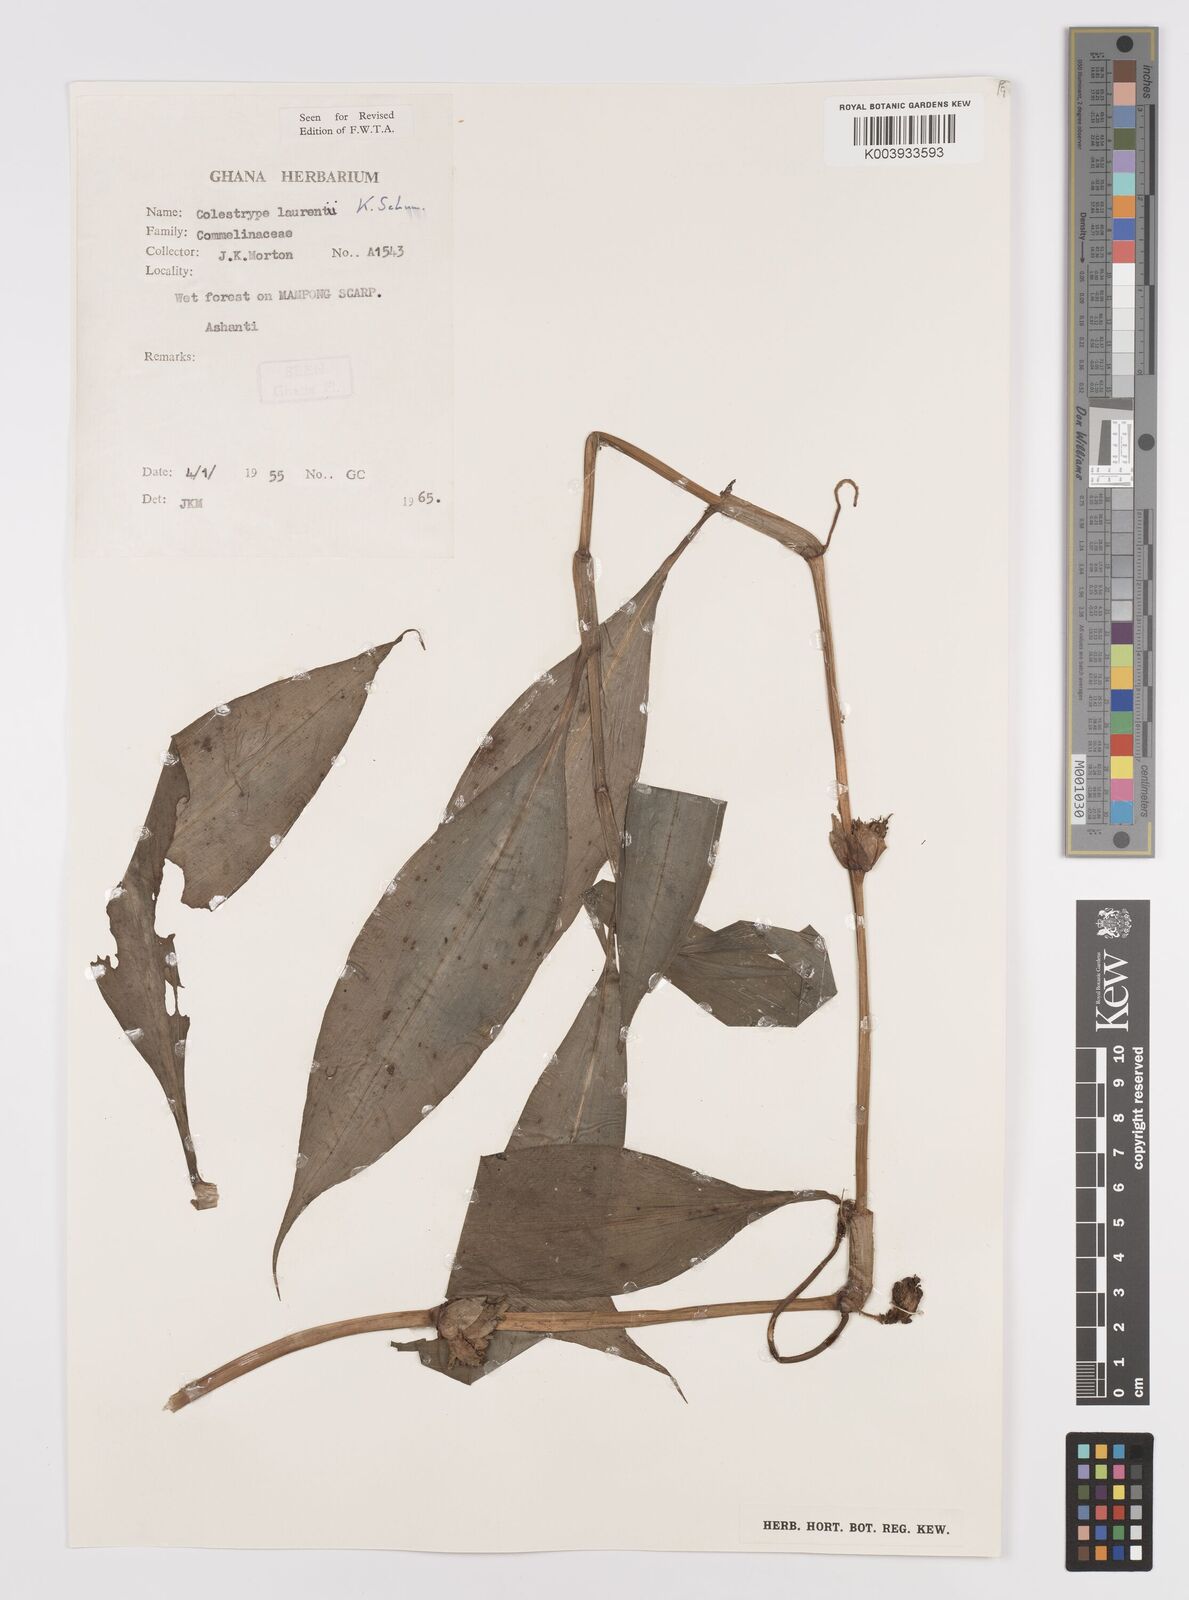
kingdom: Plantae
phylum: Tracheophyta
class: Liliopsida
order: Commelinales
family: Commelinaceae
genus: Coleotrype
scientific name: Coleotrype laurentii
